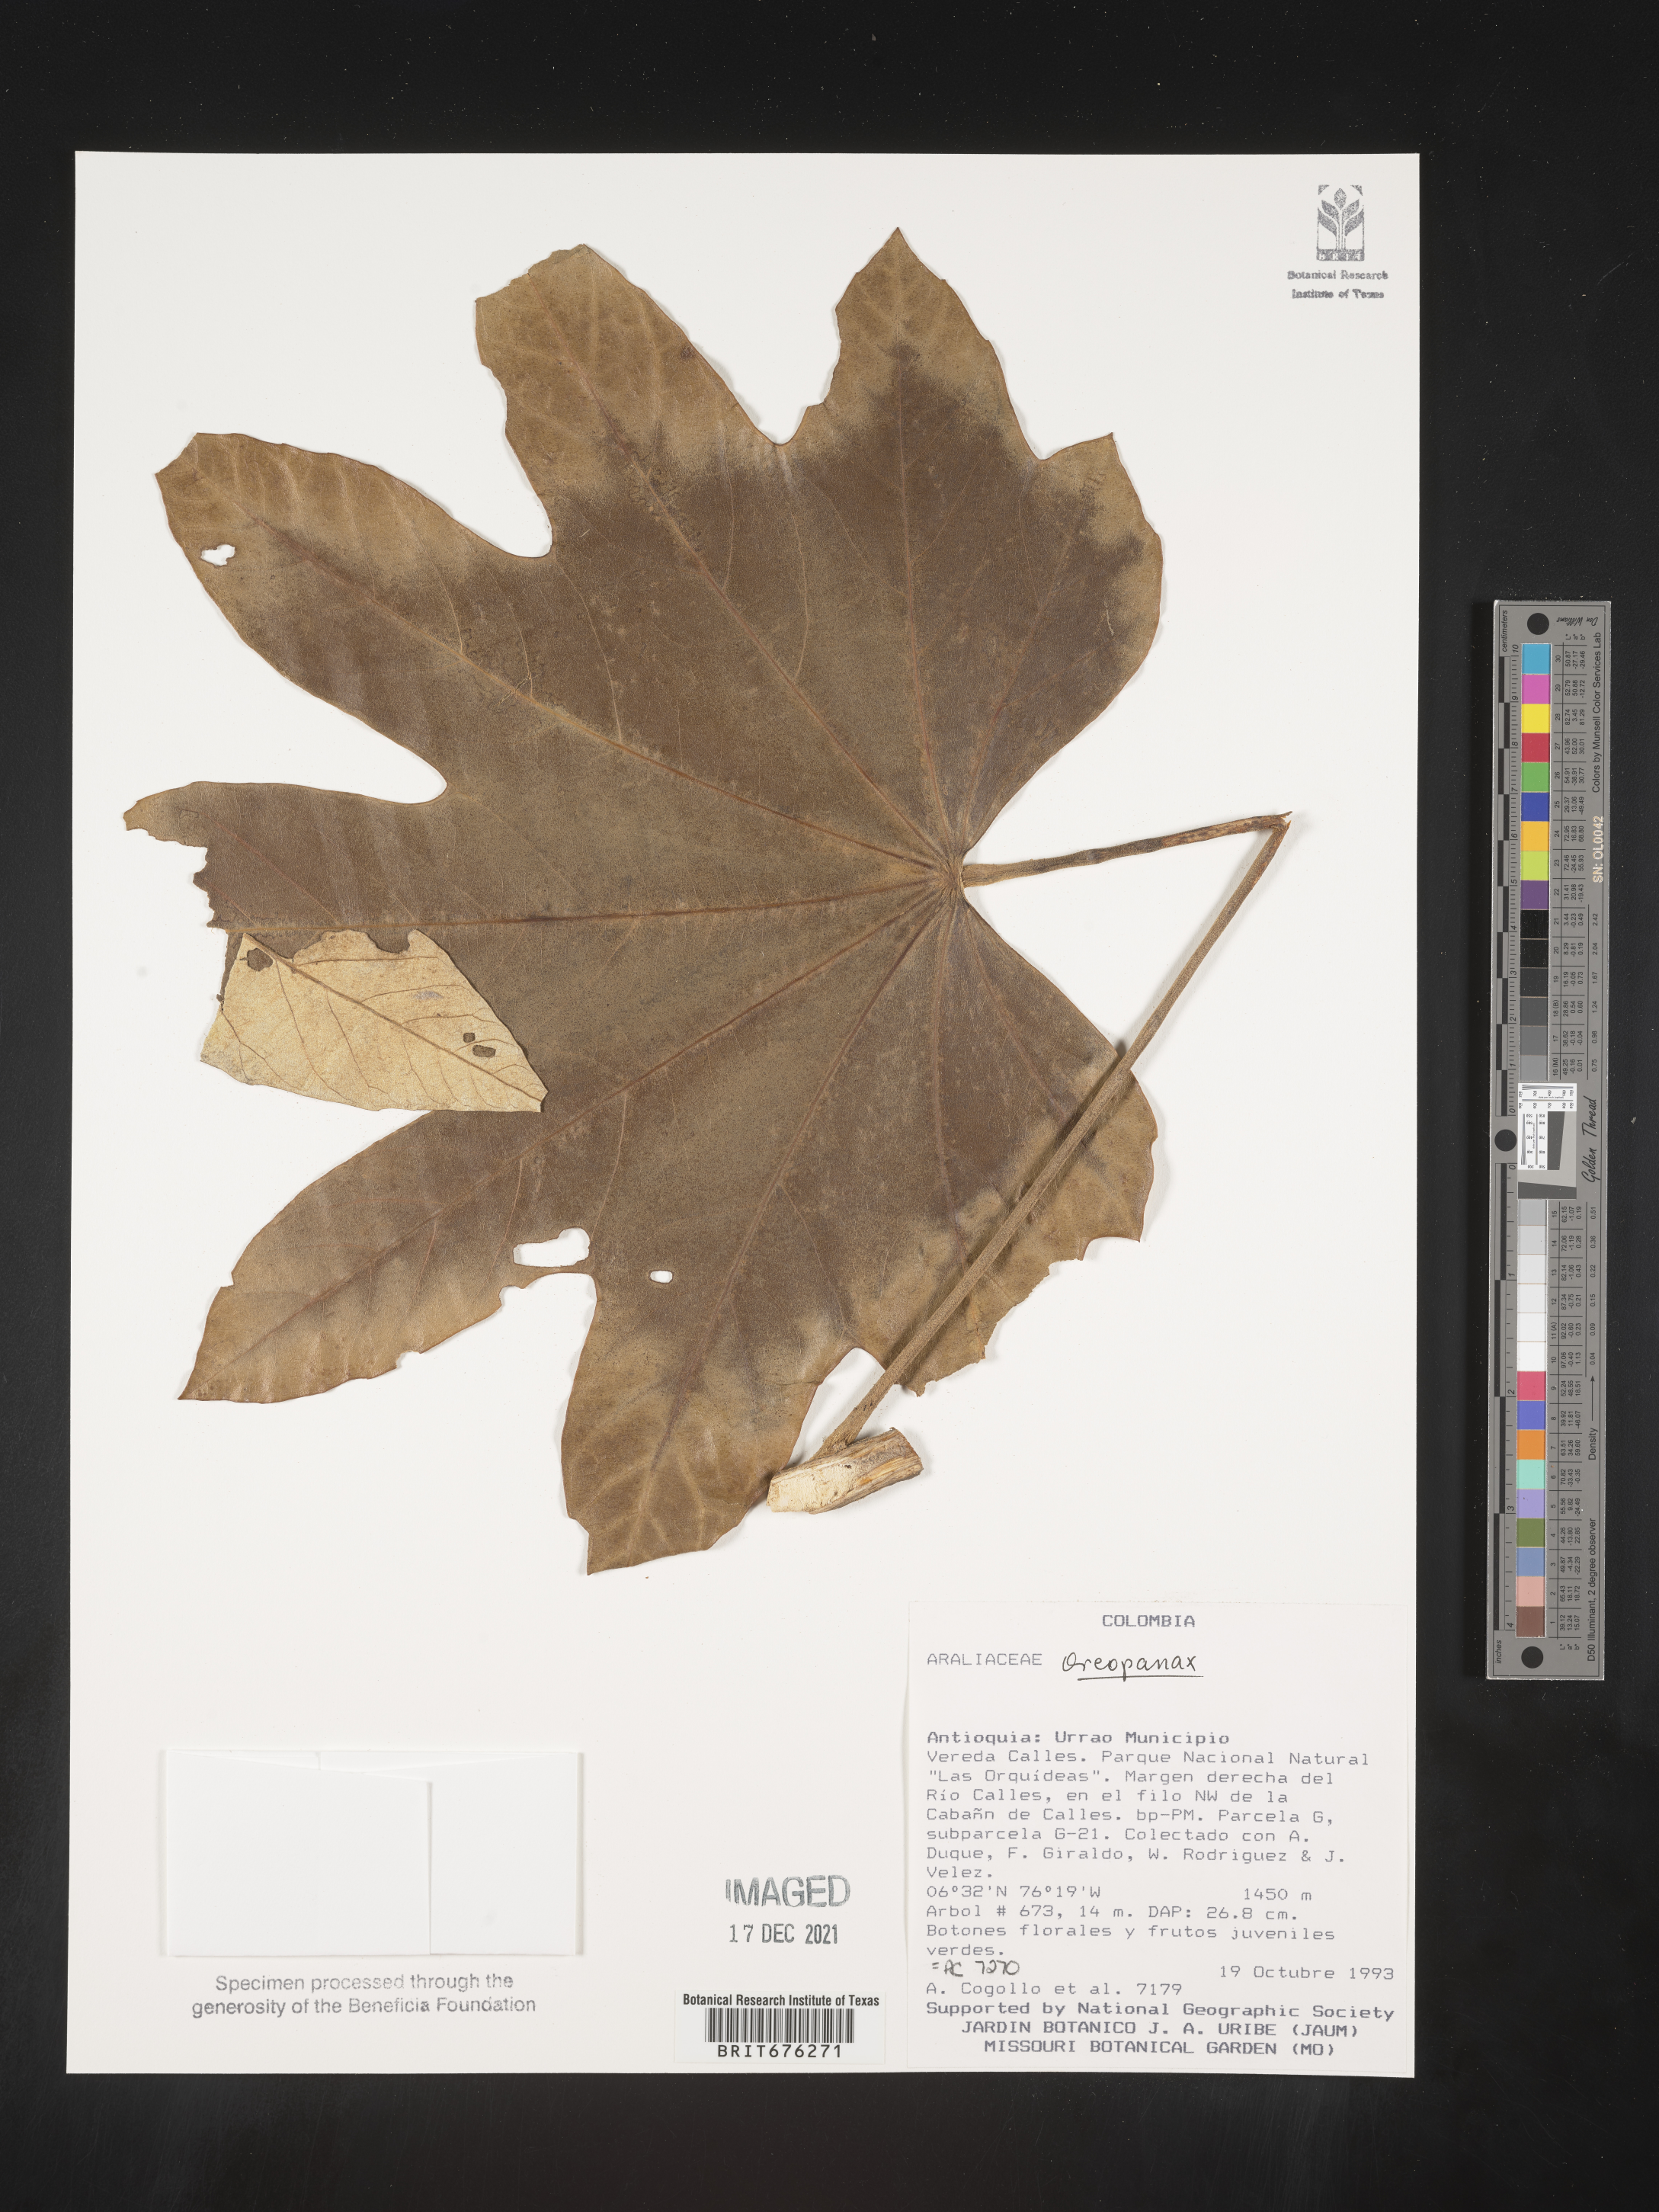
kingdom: Plantae
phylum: Tracheophyta
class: Magnoliopsida
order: Apiales
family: Araliaceae
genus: Oreopanax
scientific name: Oreopanax
